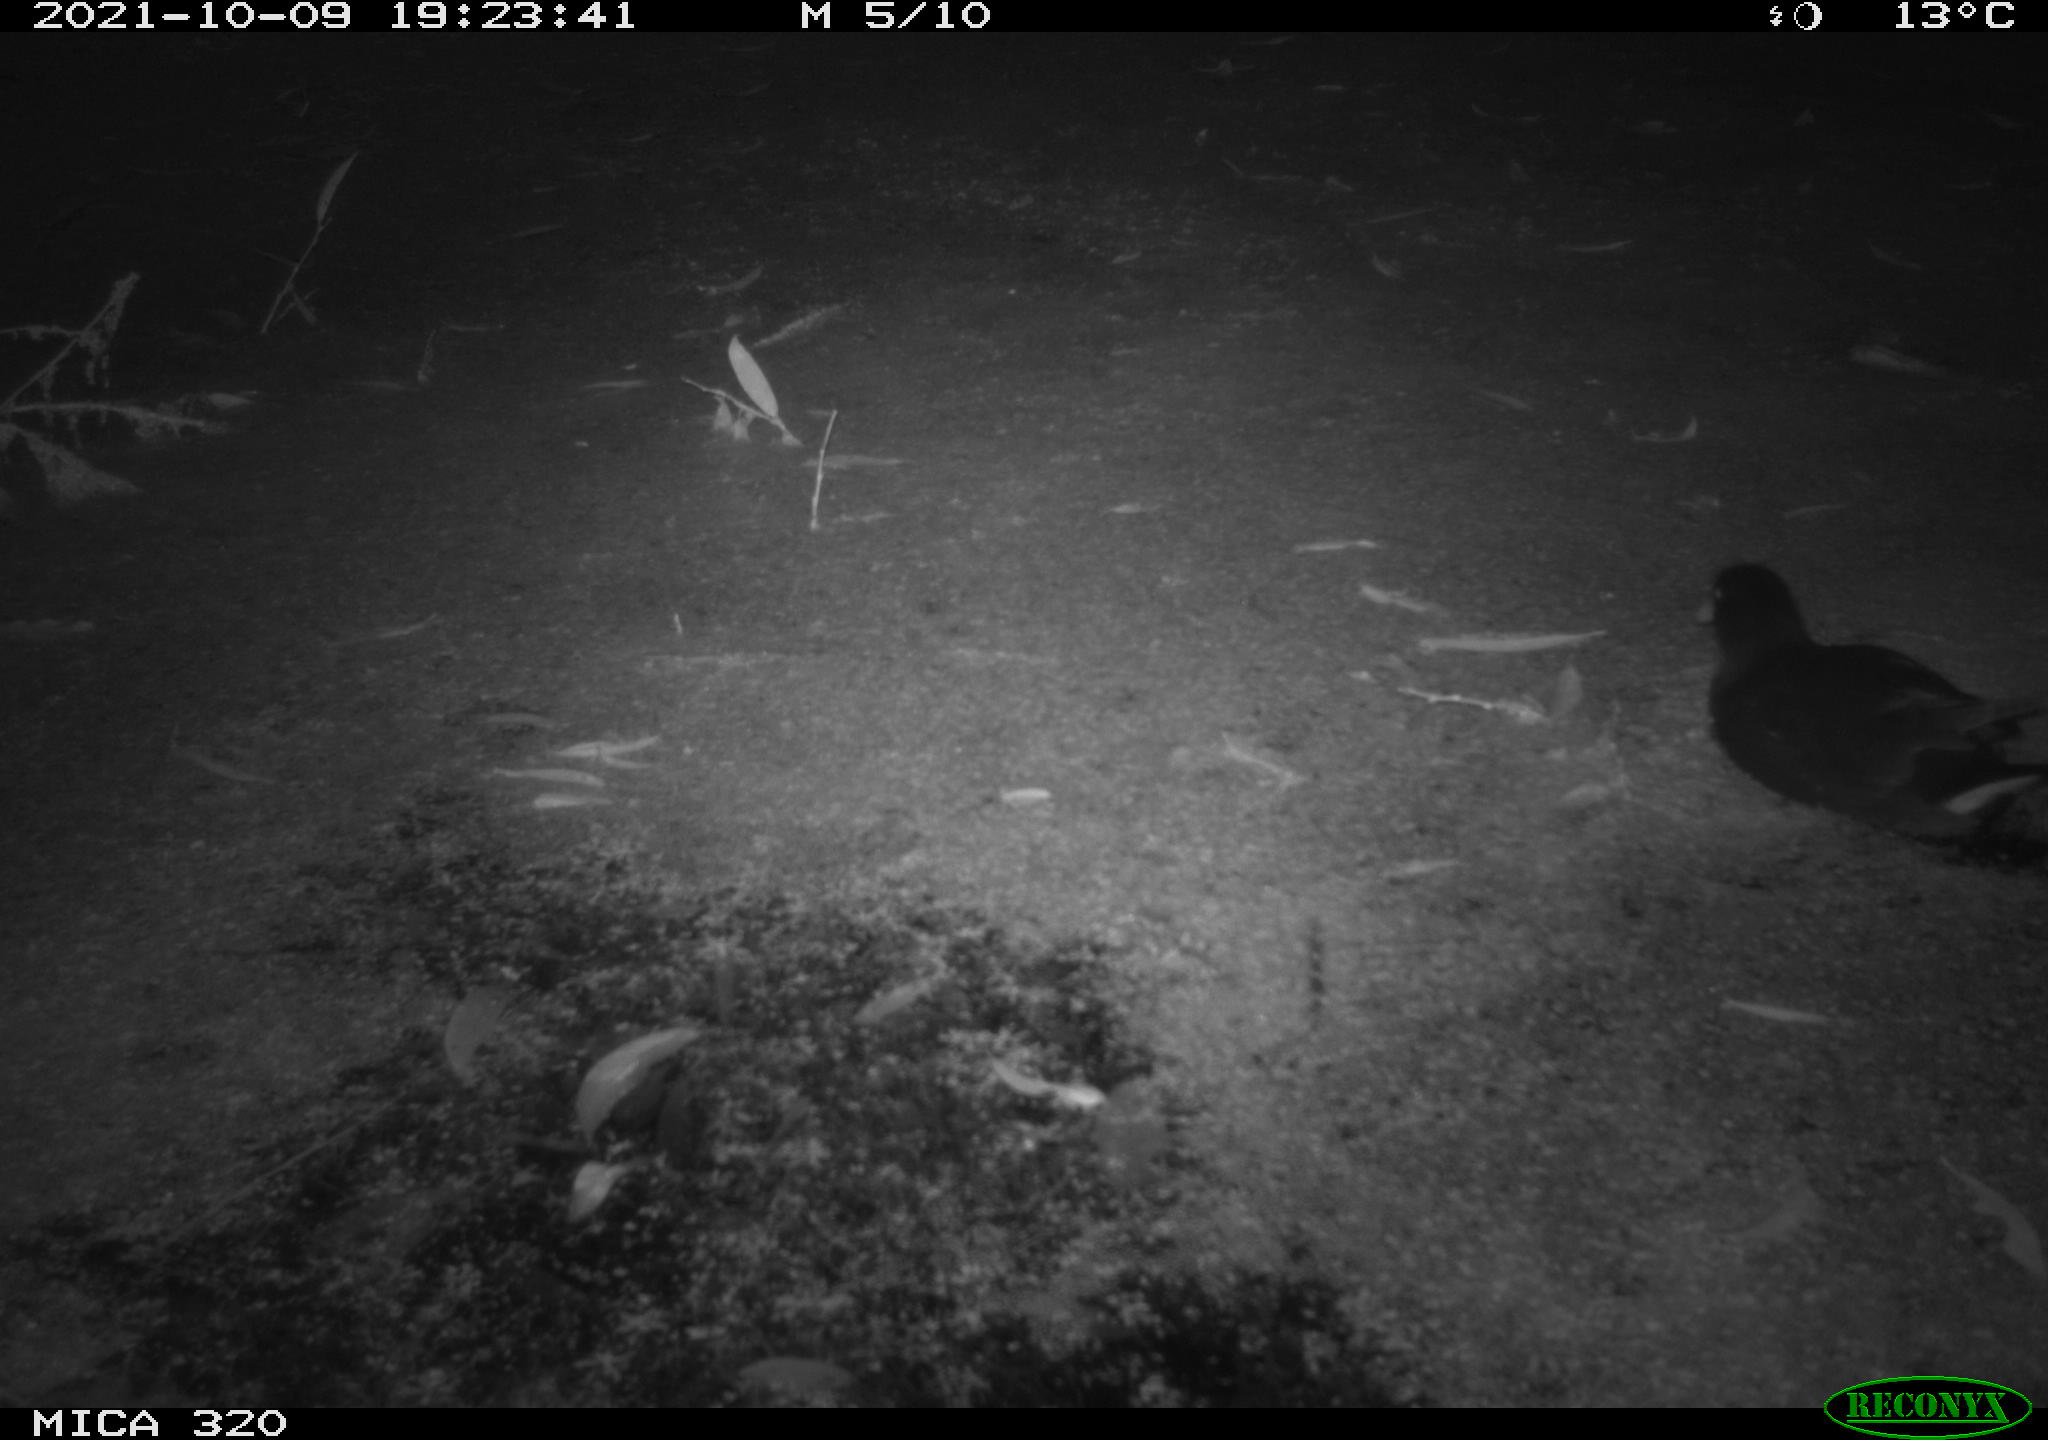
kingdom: Animalia
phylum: Chordata
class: Aves
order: Gruiformes
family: Rallidae
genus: Gallinula
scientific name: Gallinula chloropus
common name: Common moorhen
